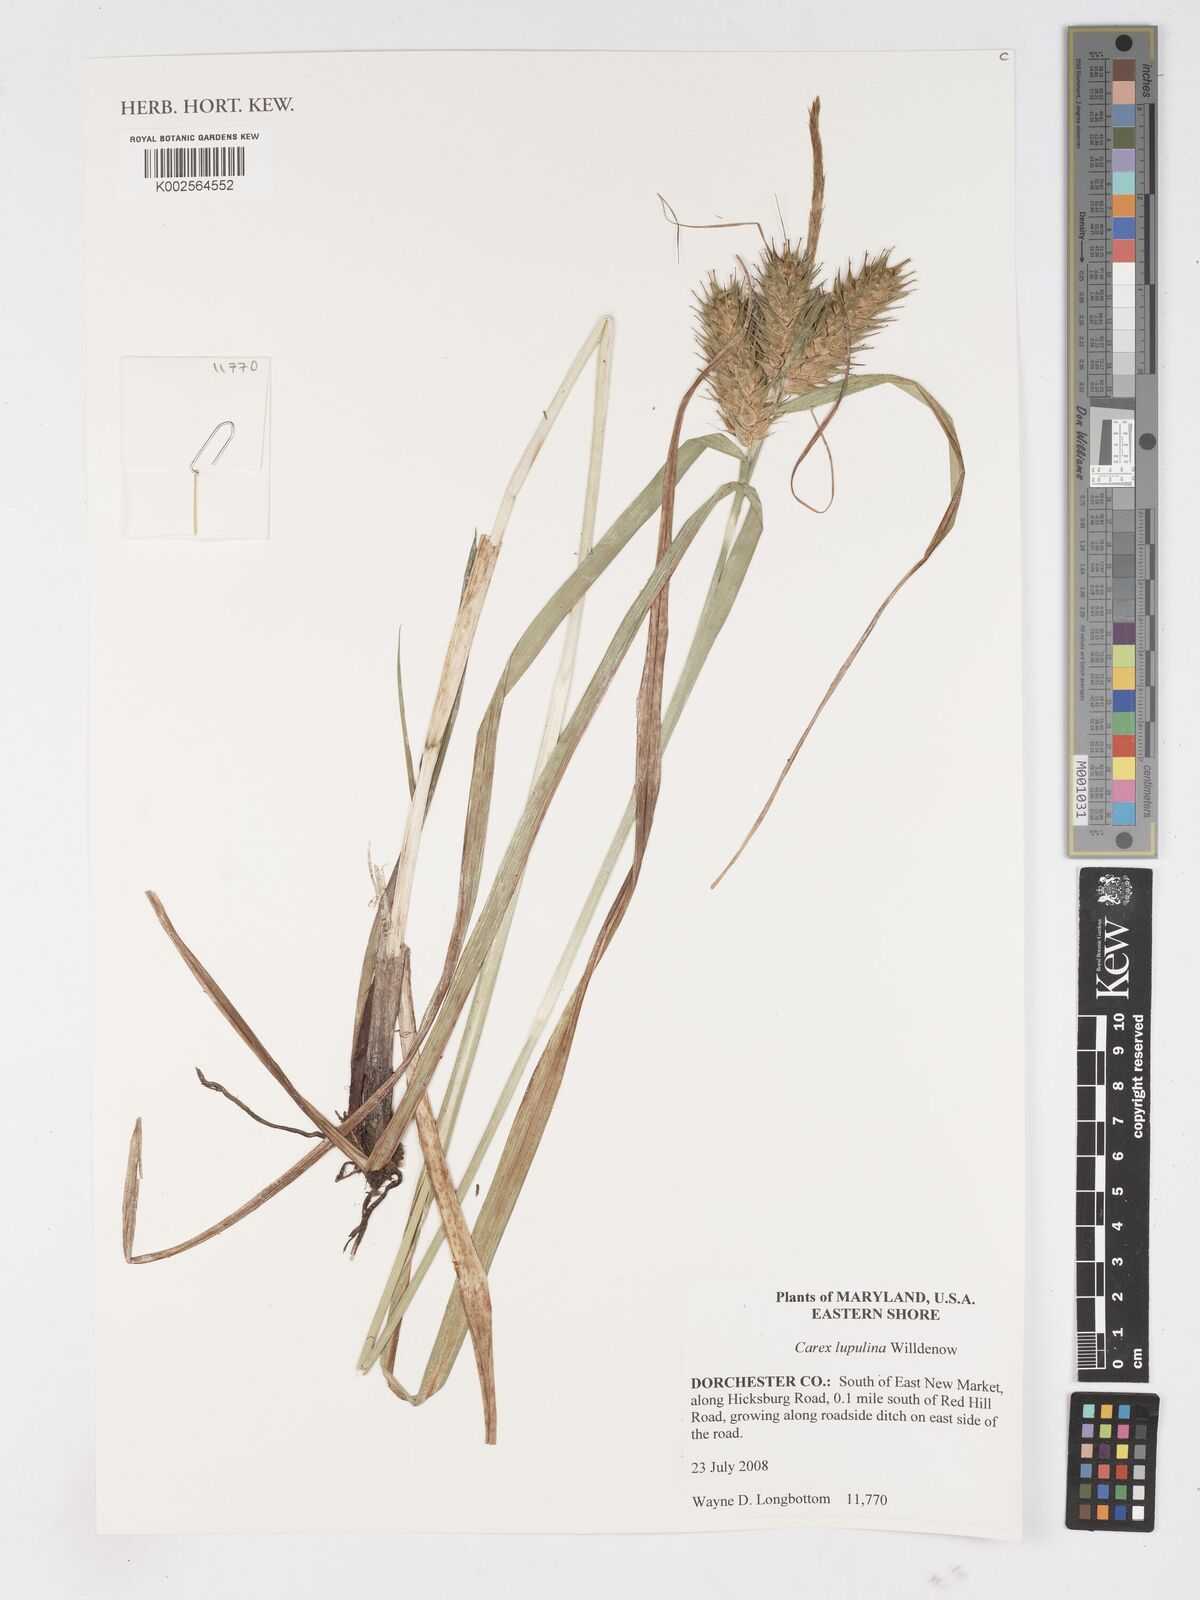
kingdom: Plantae
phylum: Tracheophyta
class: Liliopsida
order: Poales
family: Cyperaceae
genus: Carex
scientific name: Carex lupulina
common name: Hop sedge
